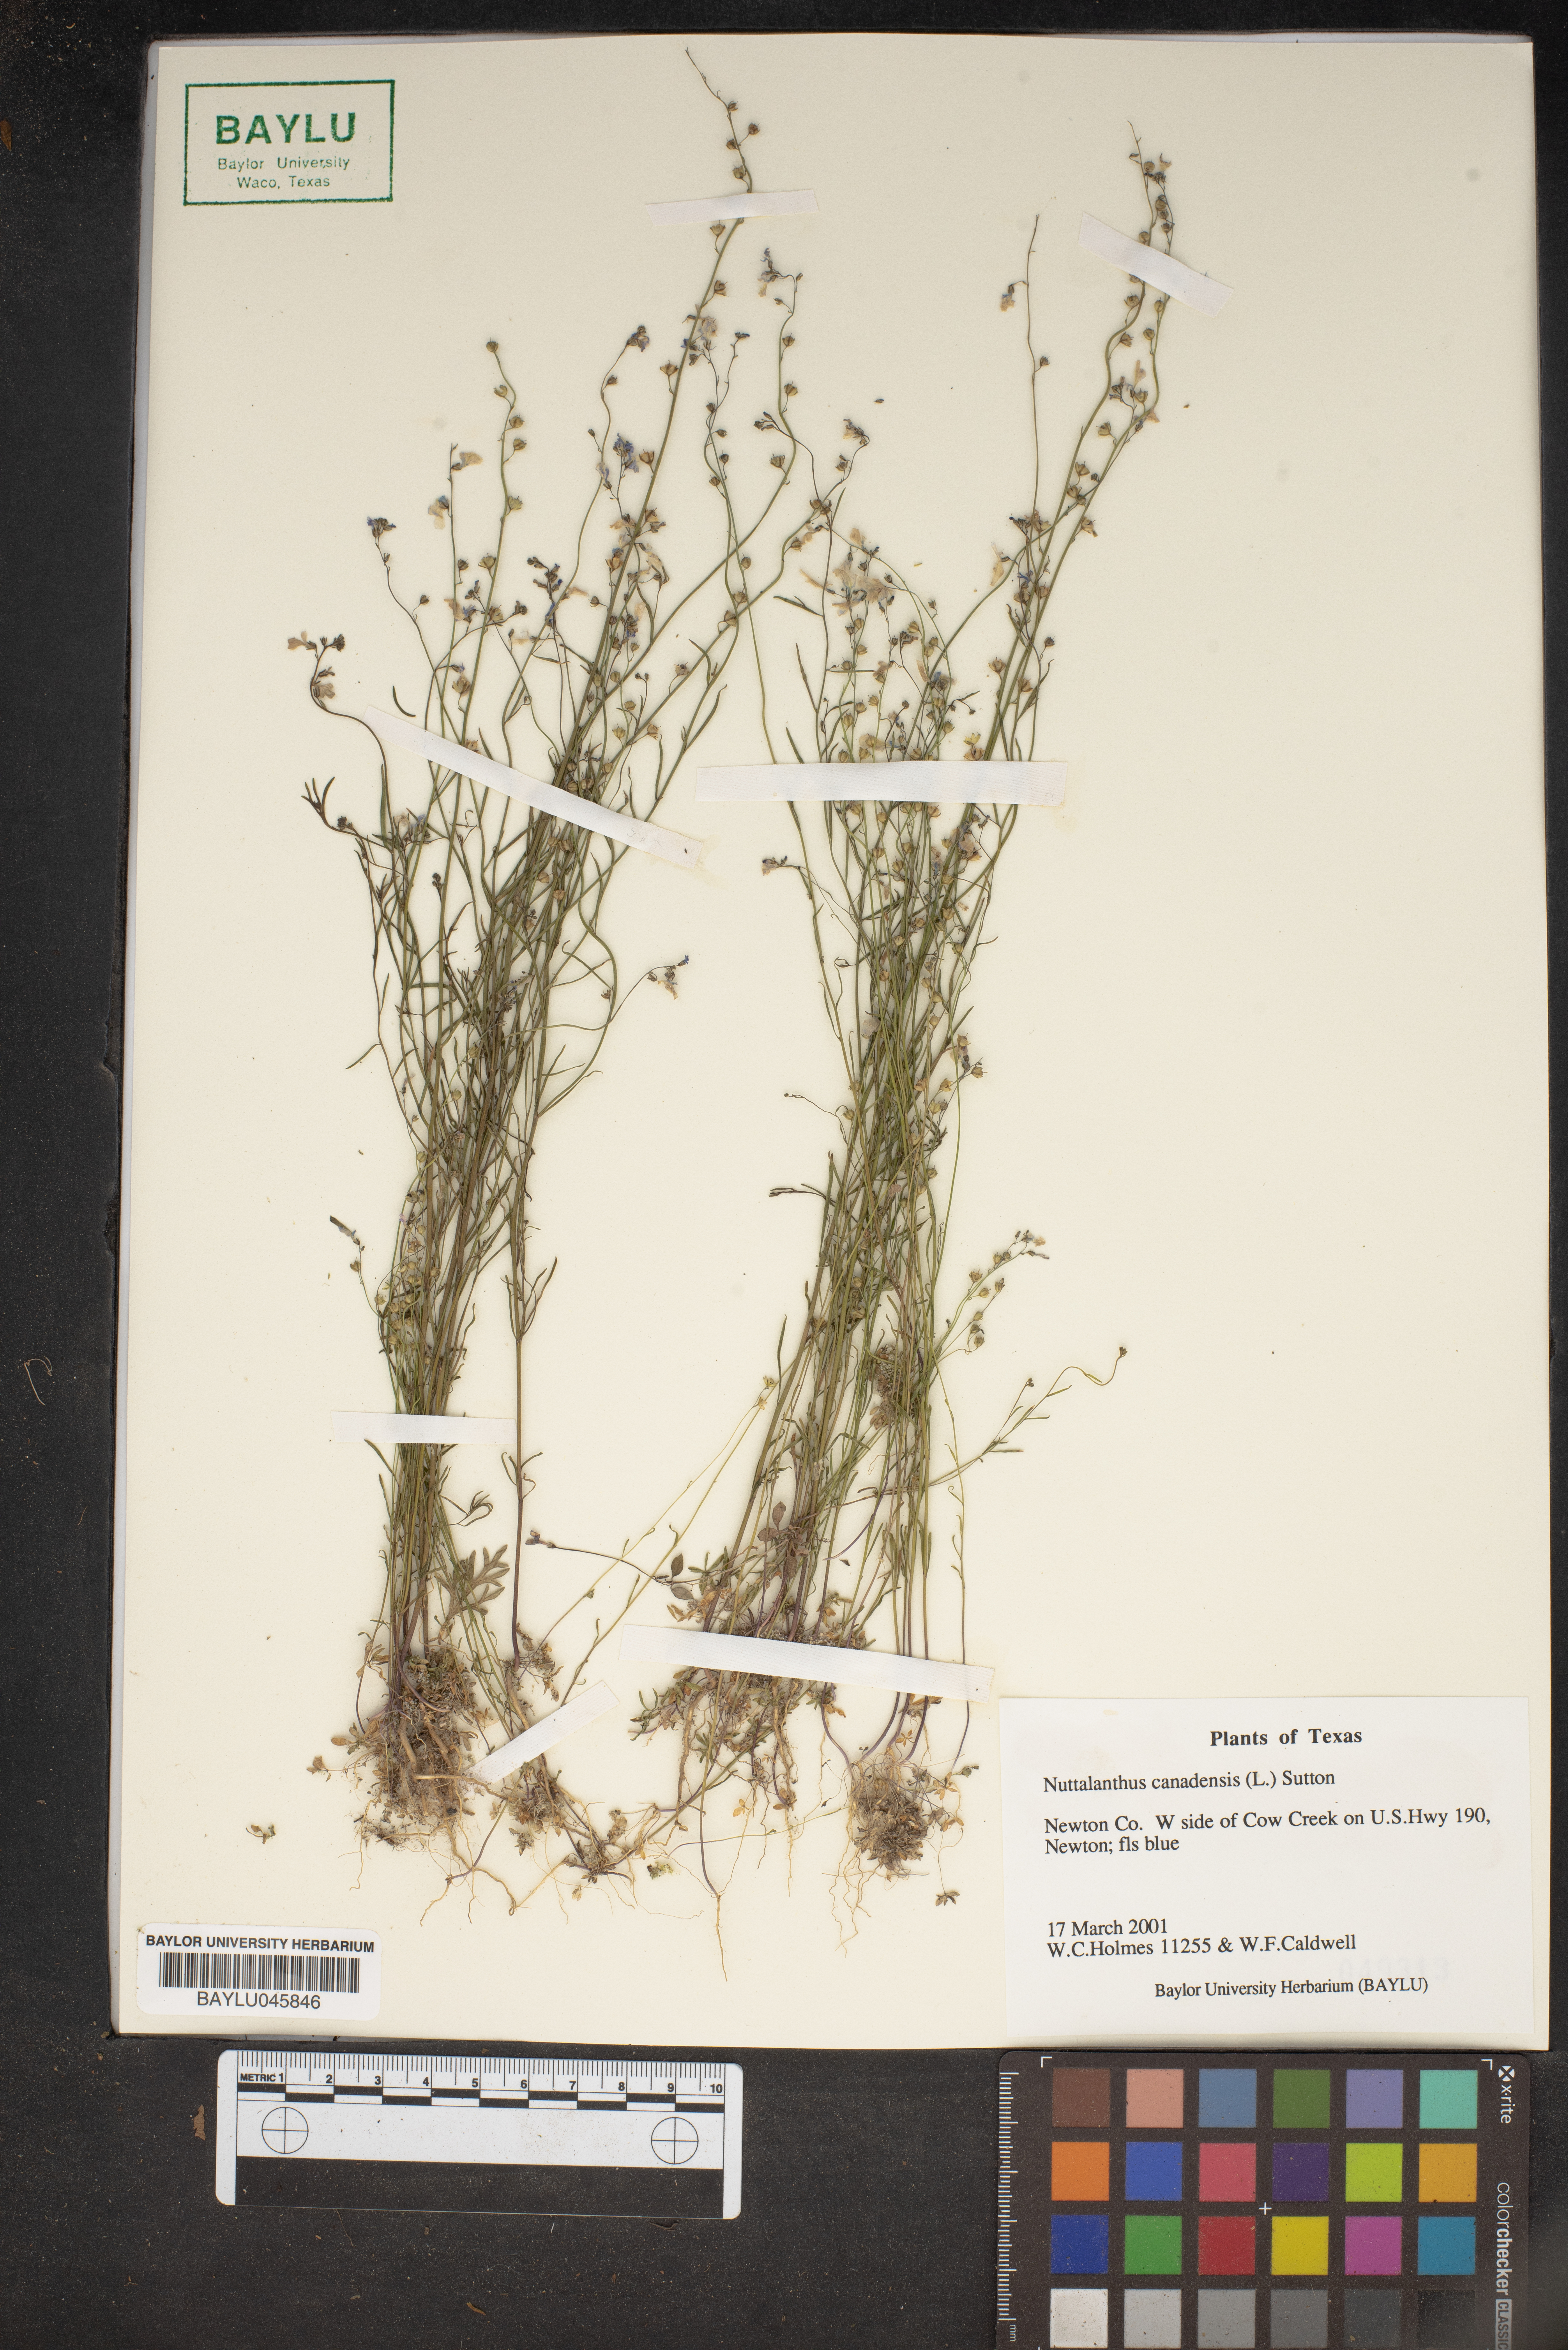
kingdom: Plantae
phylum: Tracheophyta
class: Magnoliopsida
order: Lamiales
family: Plantaginaceae
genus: Nuttallanthus
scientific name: Nuttallanthus canadensis
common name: Blue toadflax
